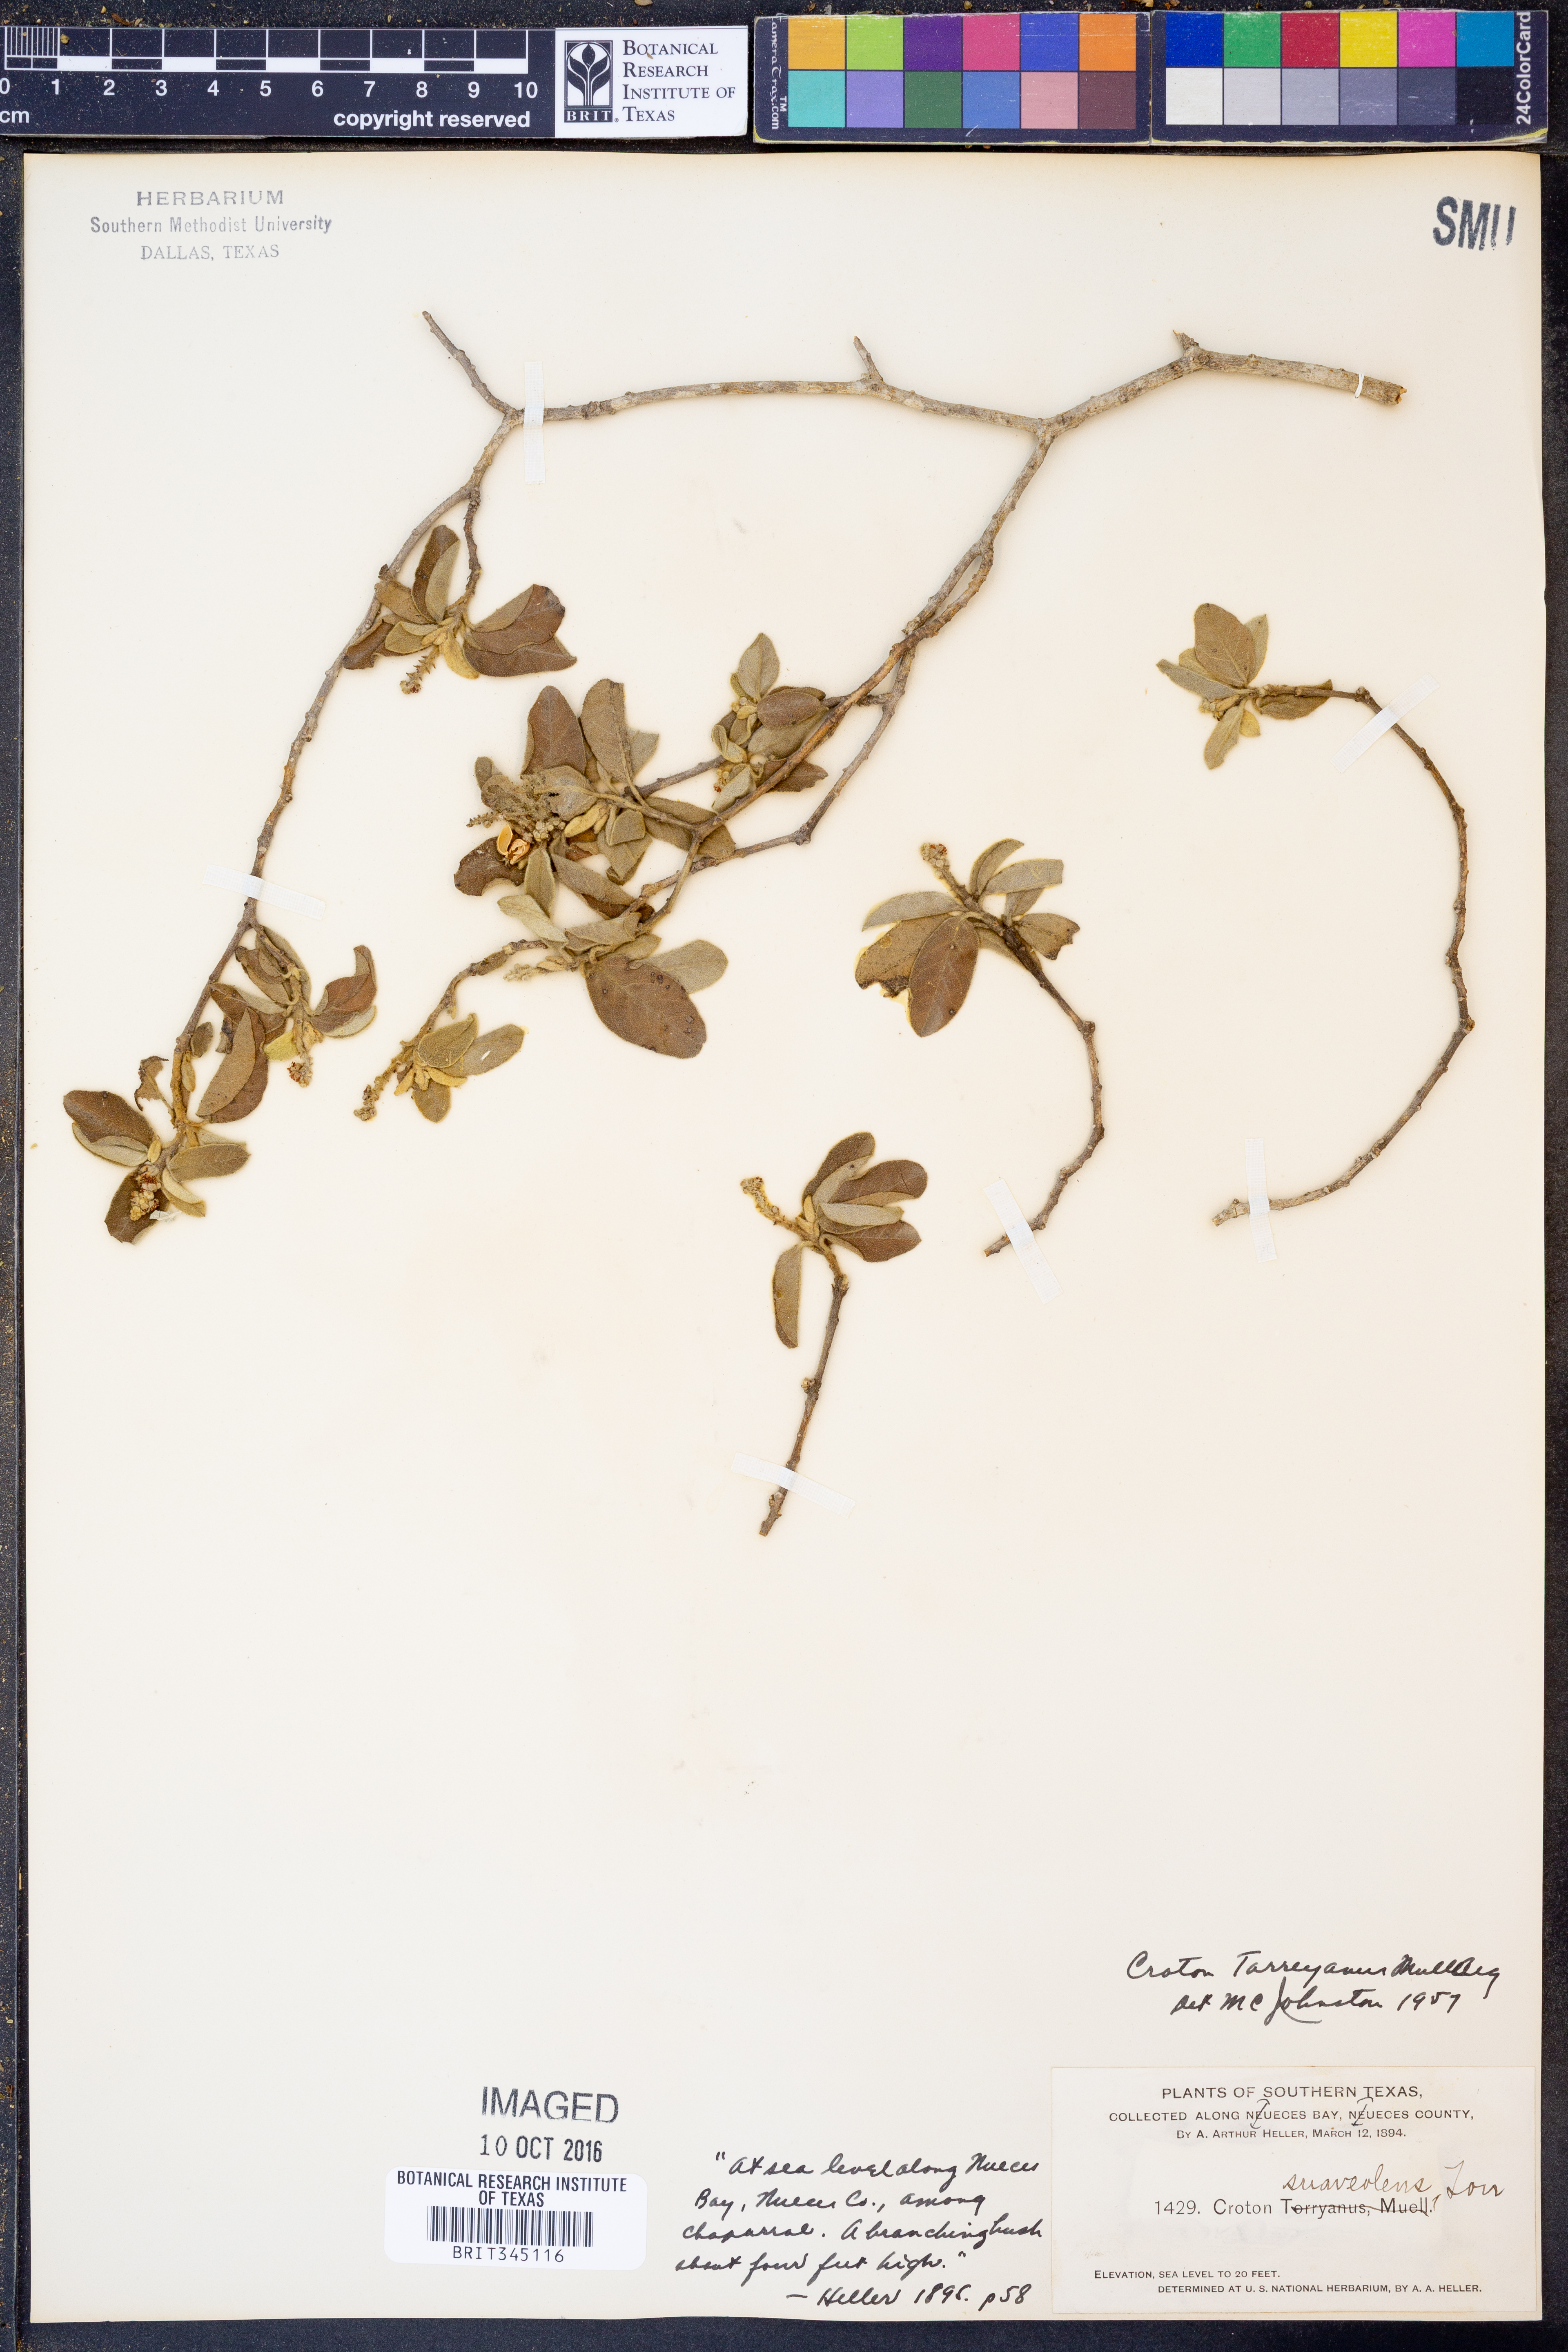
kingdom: Plantae
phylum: Tracheophyta
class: Magnoliopsida
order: Malpighiales
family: Euphorbiaceae
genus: Croton
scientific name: Croton incanus
